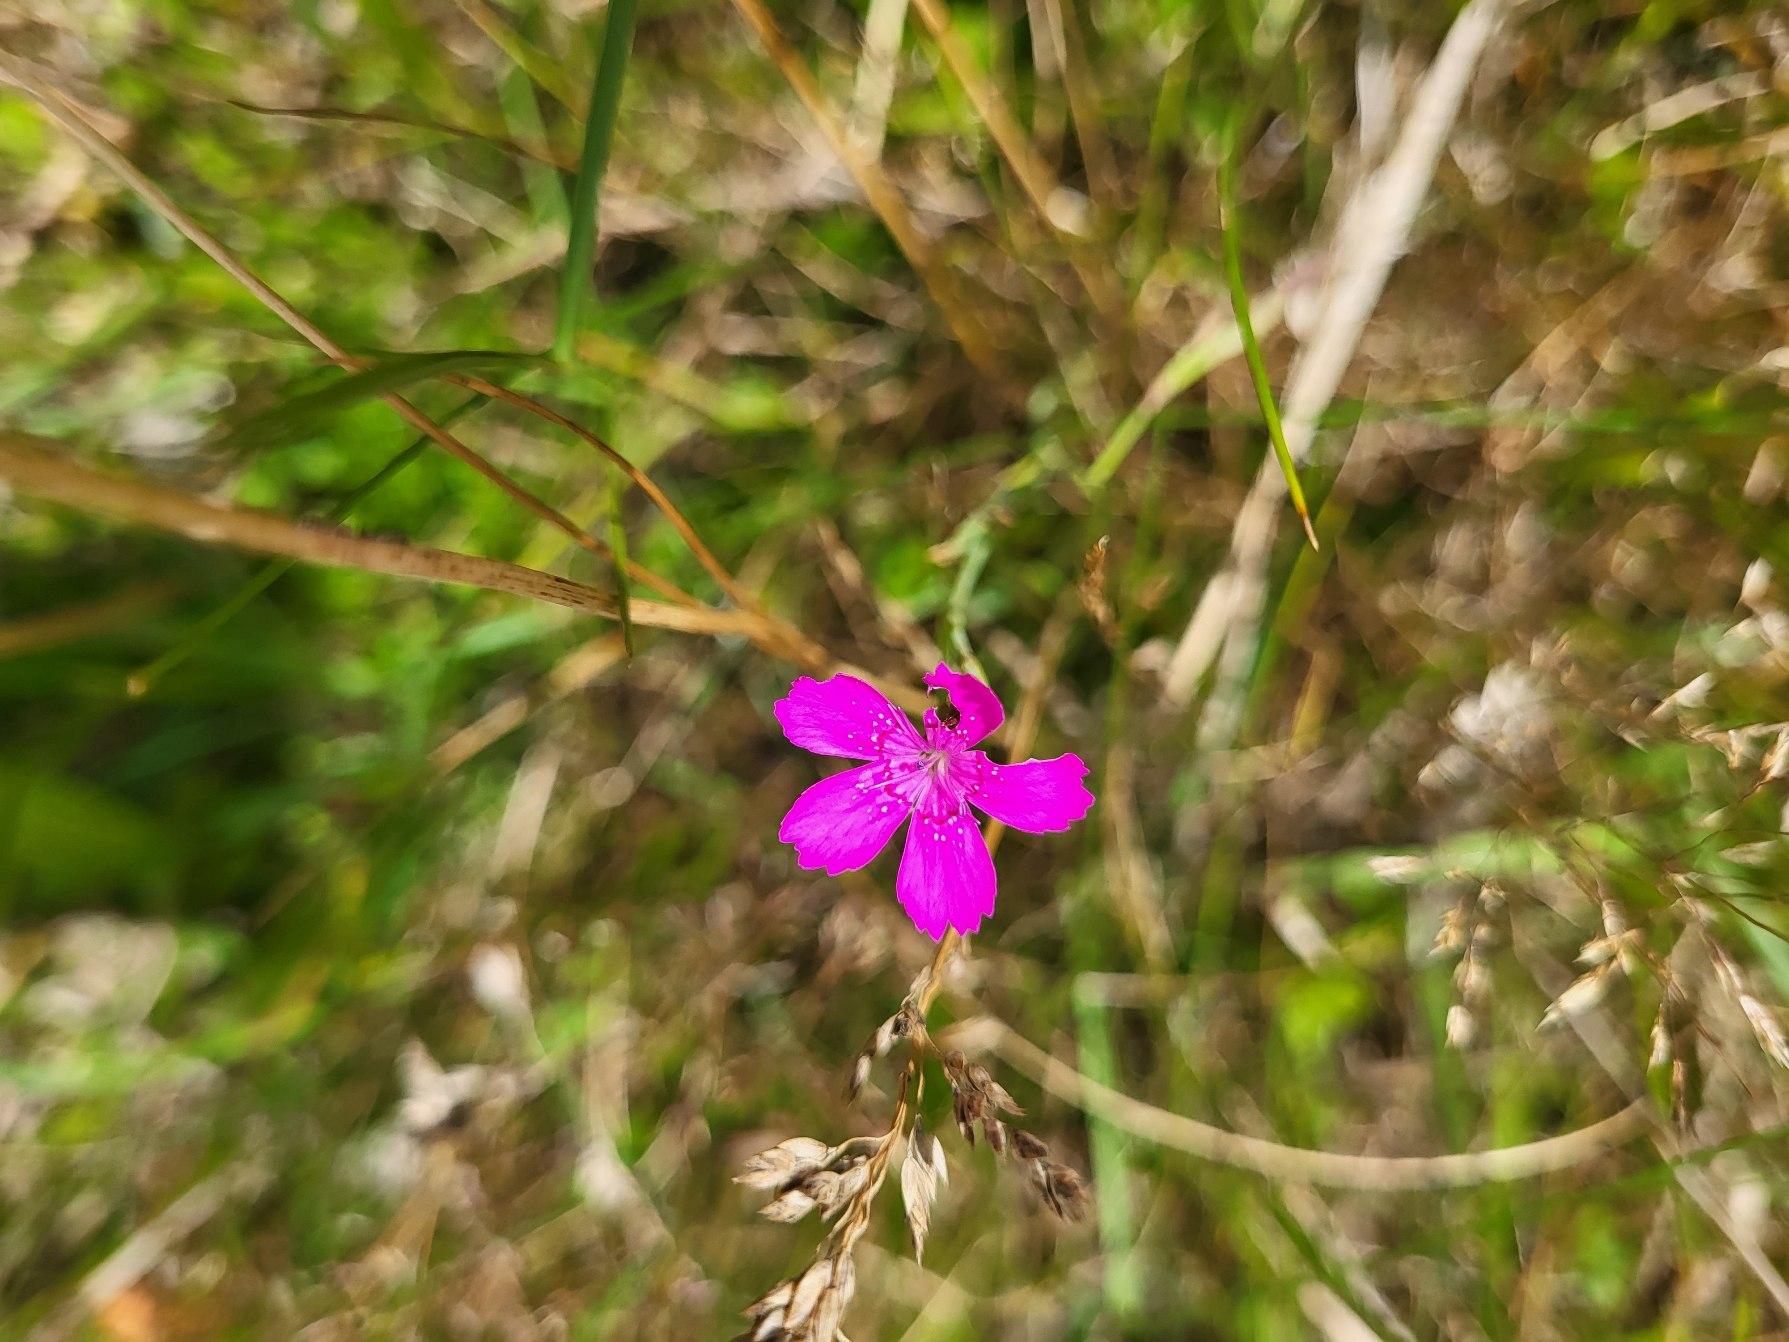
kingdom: Plantae
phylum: Tracheophyta
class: Magnoliopsida
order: Caryophyllales
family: Caryophyllaceae
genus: Dianthus
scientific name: Dianthus deltoides
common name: Bakke-nellike
